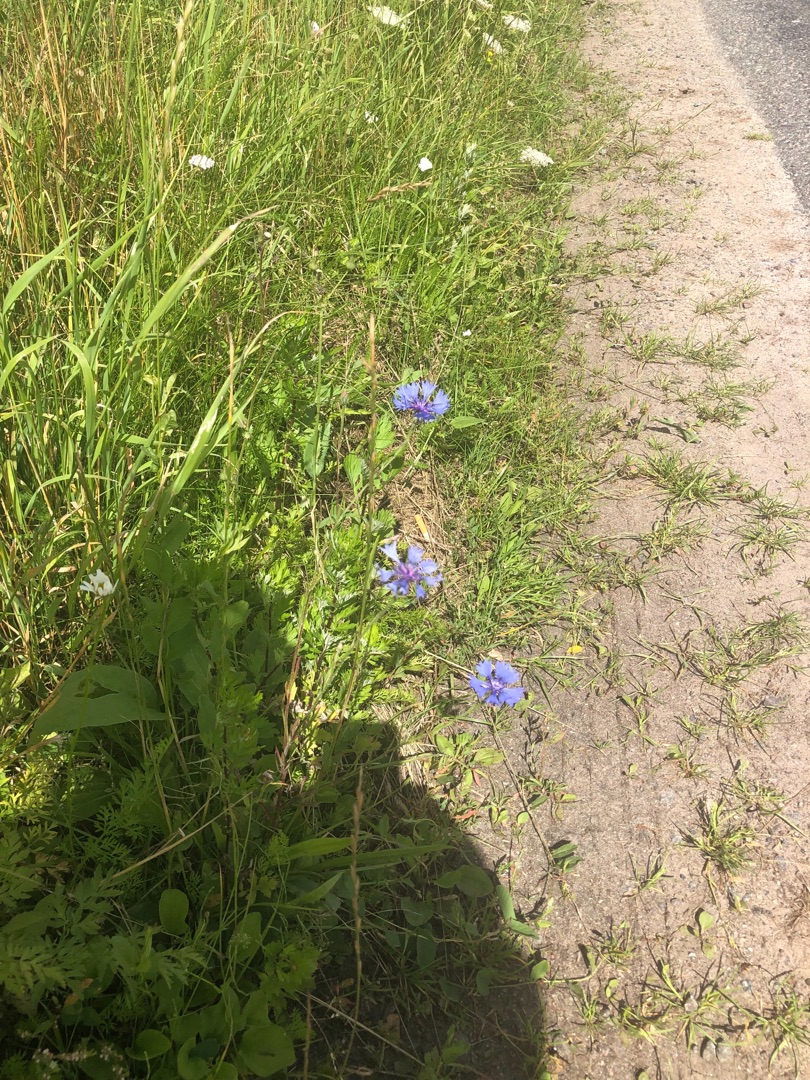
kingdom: Plantae
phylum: Tracheophyta
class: Magnoliopsida
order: Asterales
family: Asteraceae
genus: Centaurea
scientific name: Centaurea cyanus
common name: Kornblomst
